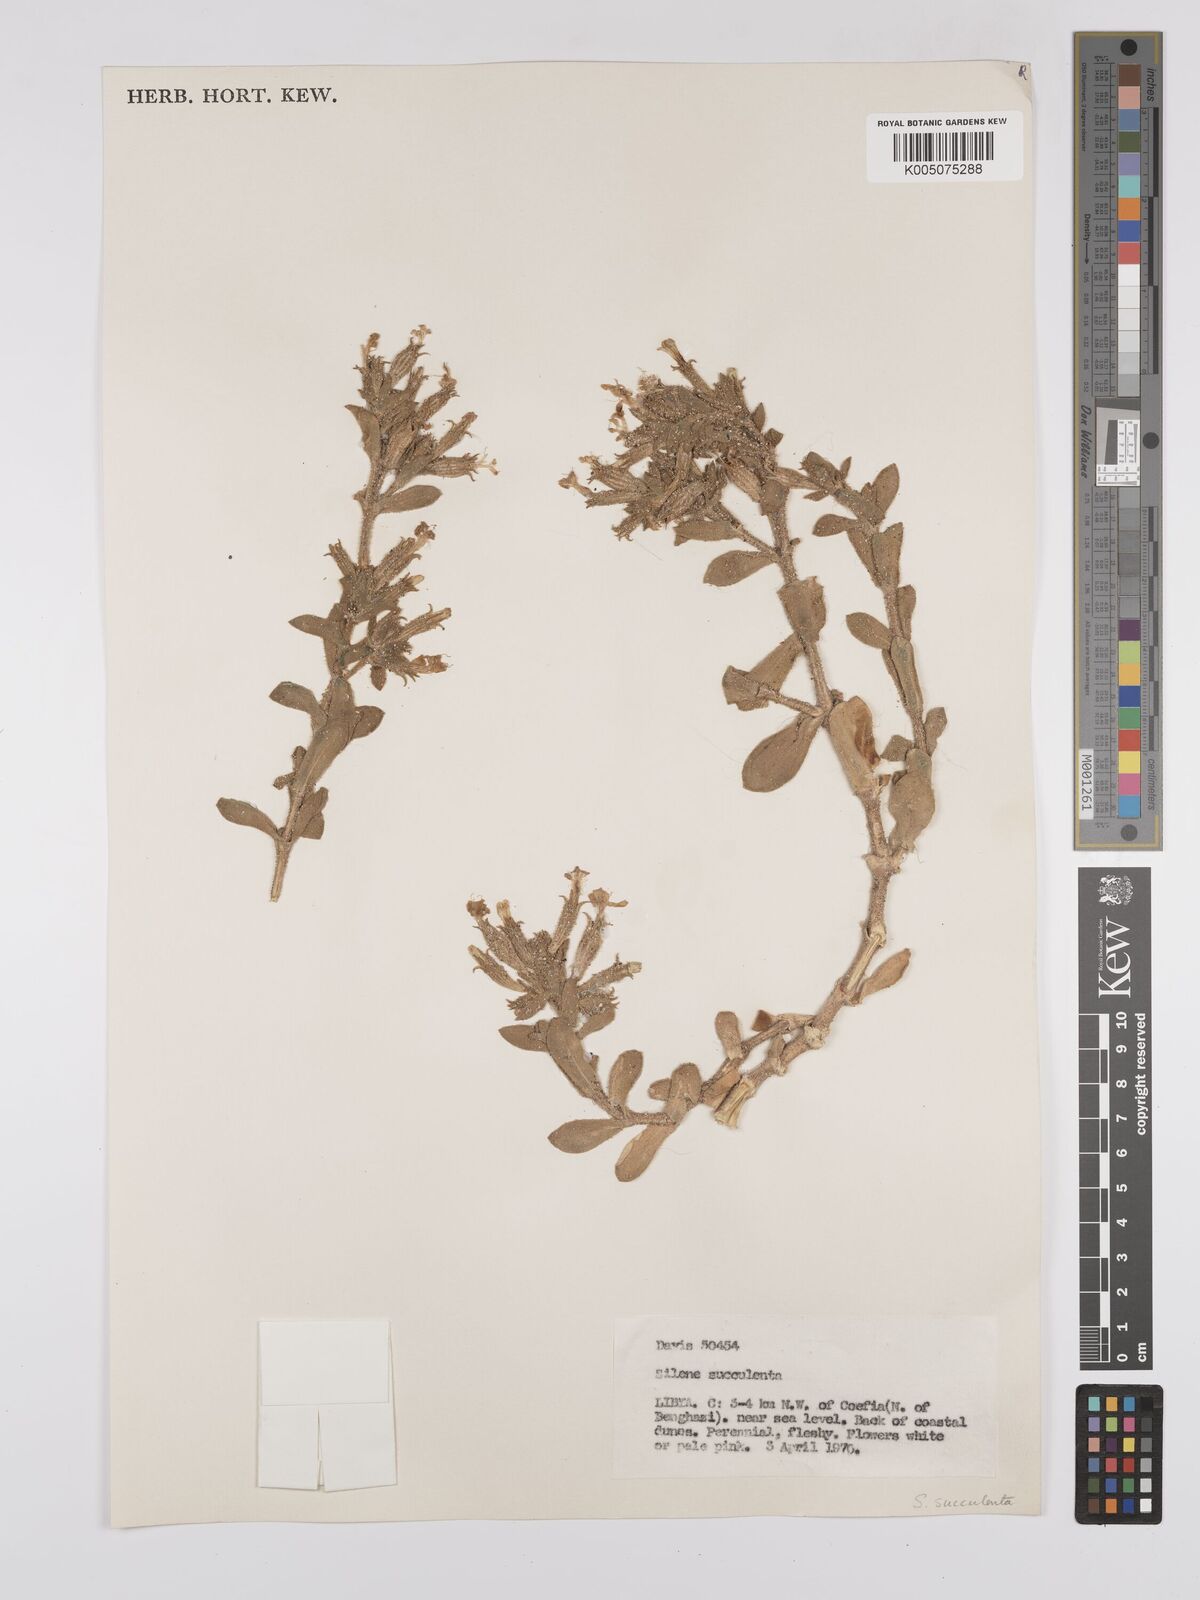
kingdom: Plantae
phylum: Tracheophyta
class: Magnoliopsida
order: Caryophyllales
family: Caryophyllaceae
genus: Silene
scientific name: Silene succulenta
